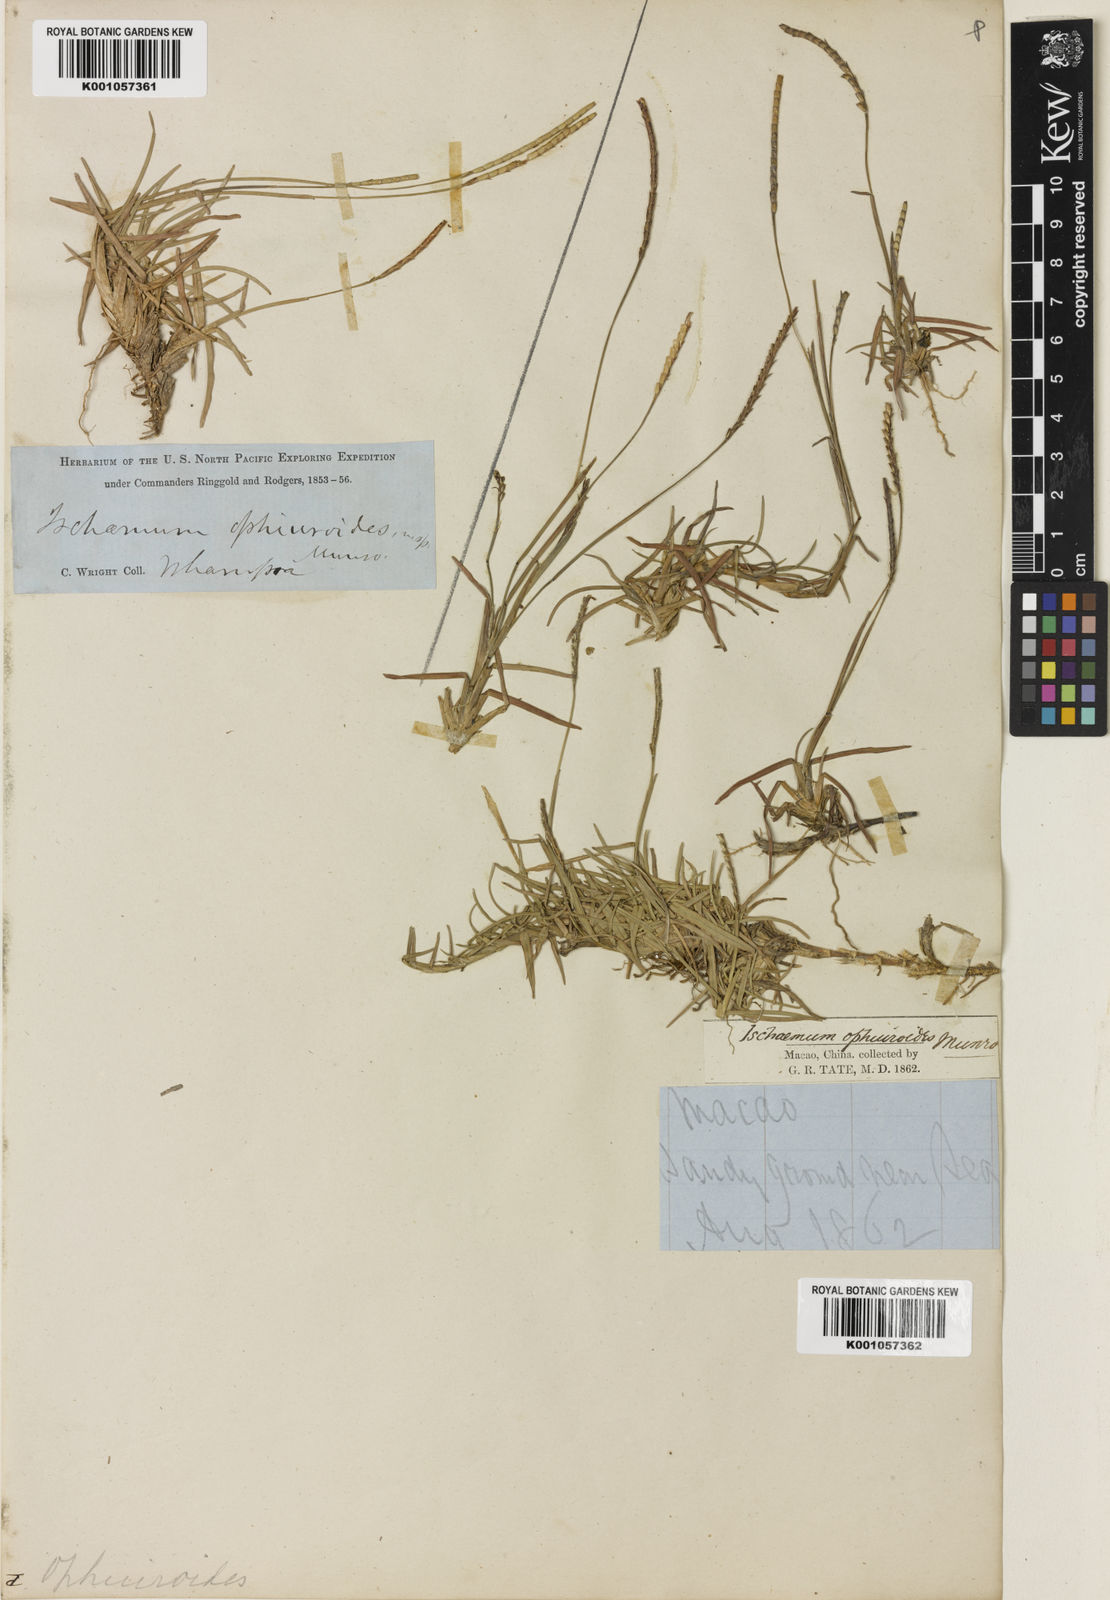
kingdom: Plantae
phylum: Tracheophyta
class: Liliopsida
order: Poales
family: Poaceae
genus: Eremochloa
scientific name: Eremochloa ophiuroides
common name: Centipede grass
